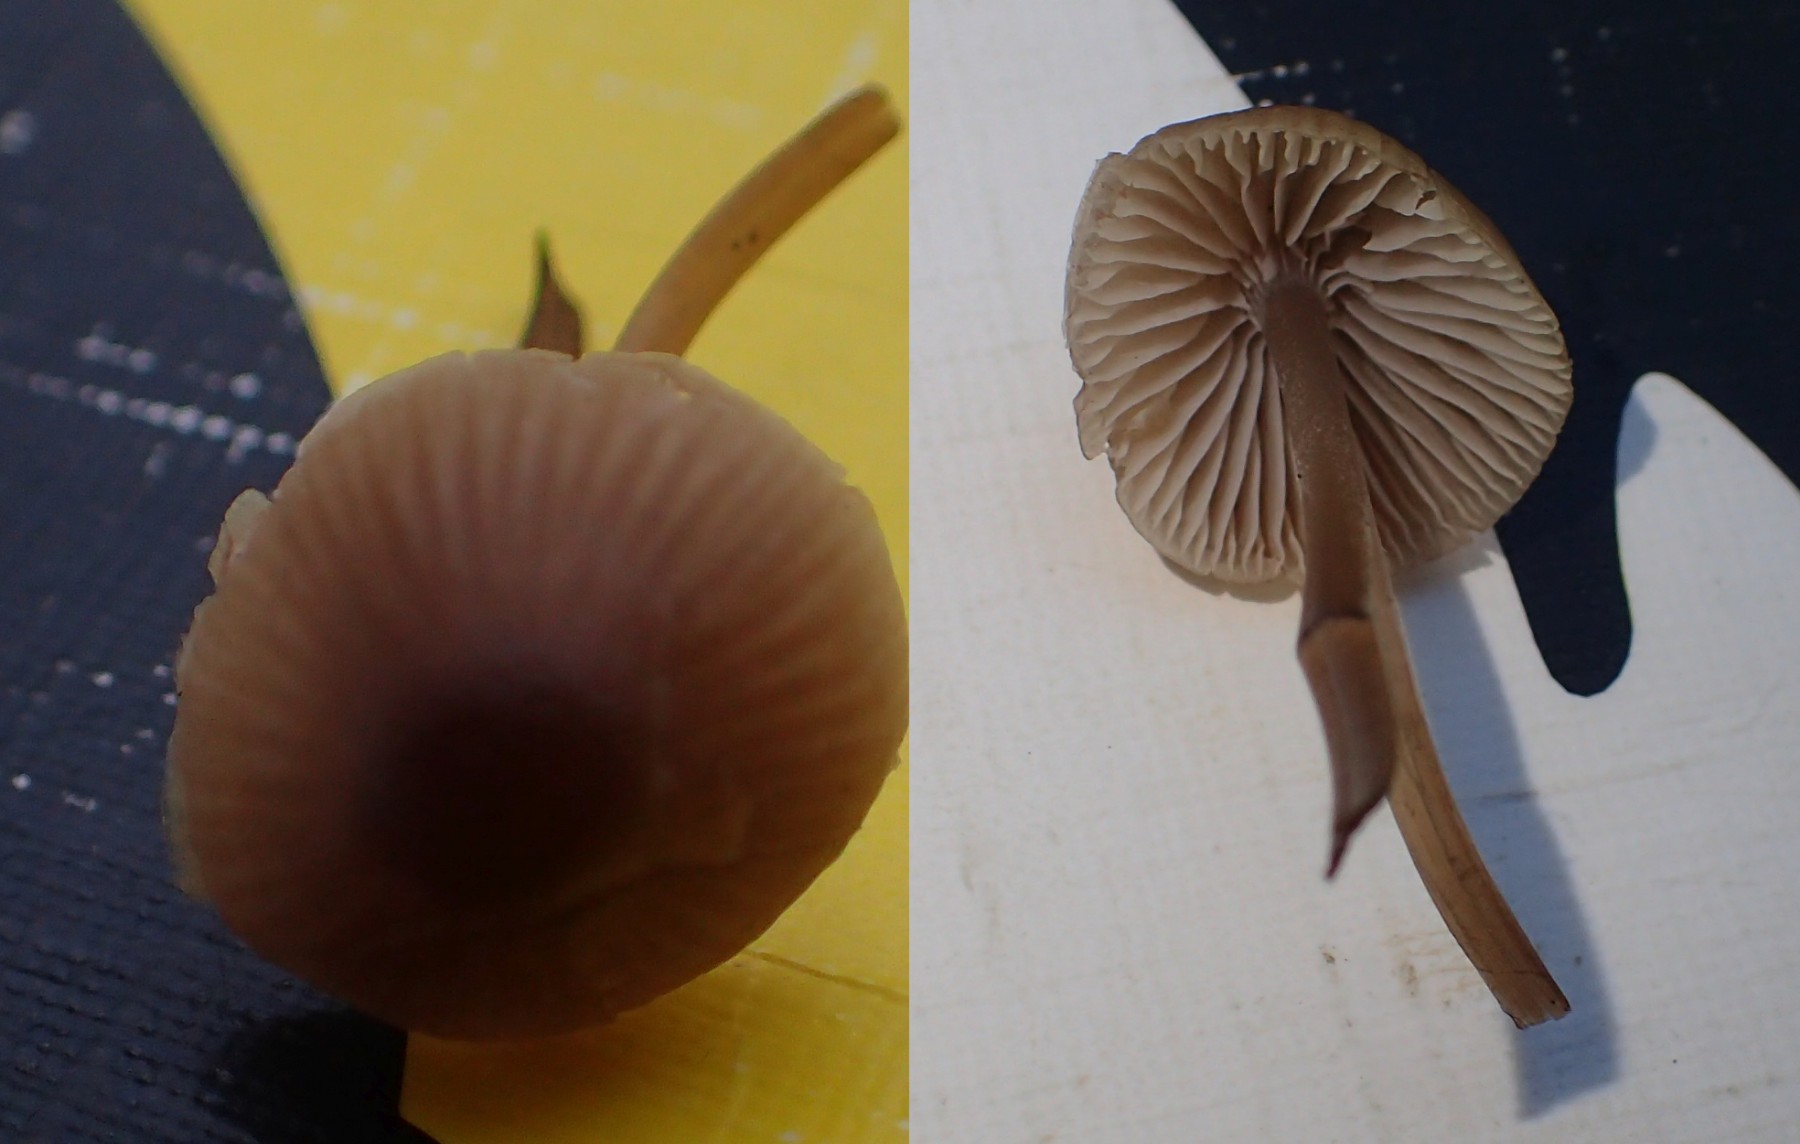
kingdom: Fungi
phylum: Basidiomycota
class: Agaricomycetes
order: Agaricales
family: Mycenaceae
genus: Mycena
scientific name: Mycena leptocephala
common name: klor-huesvamp
